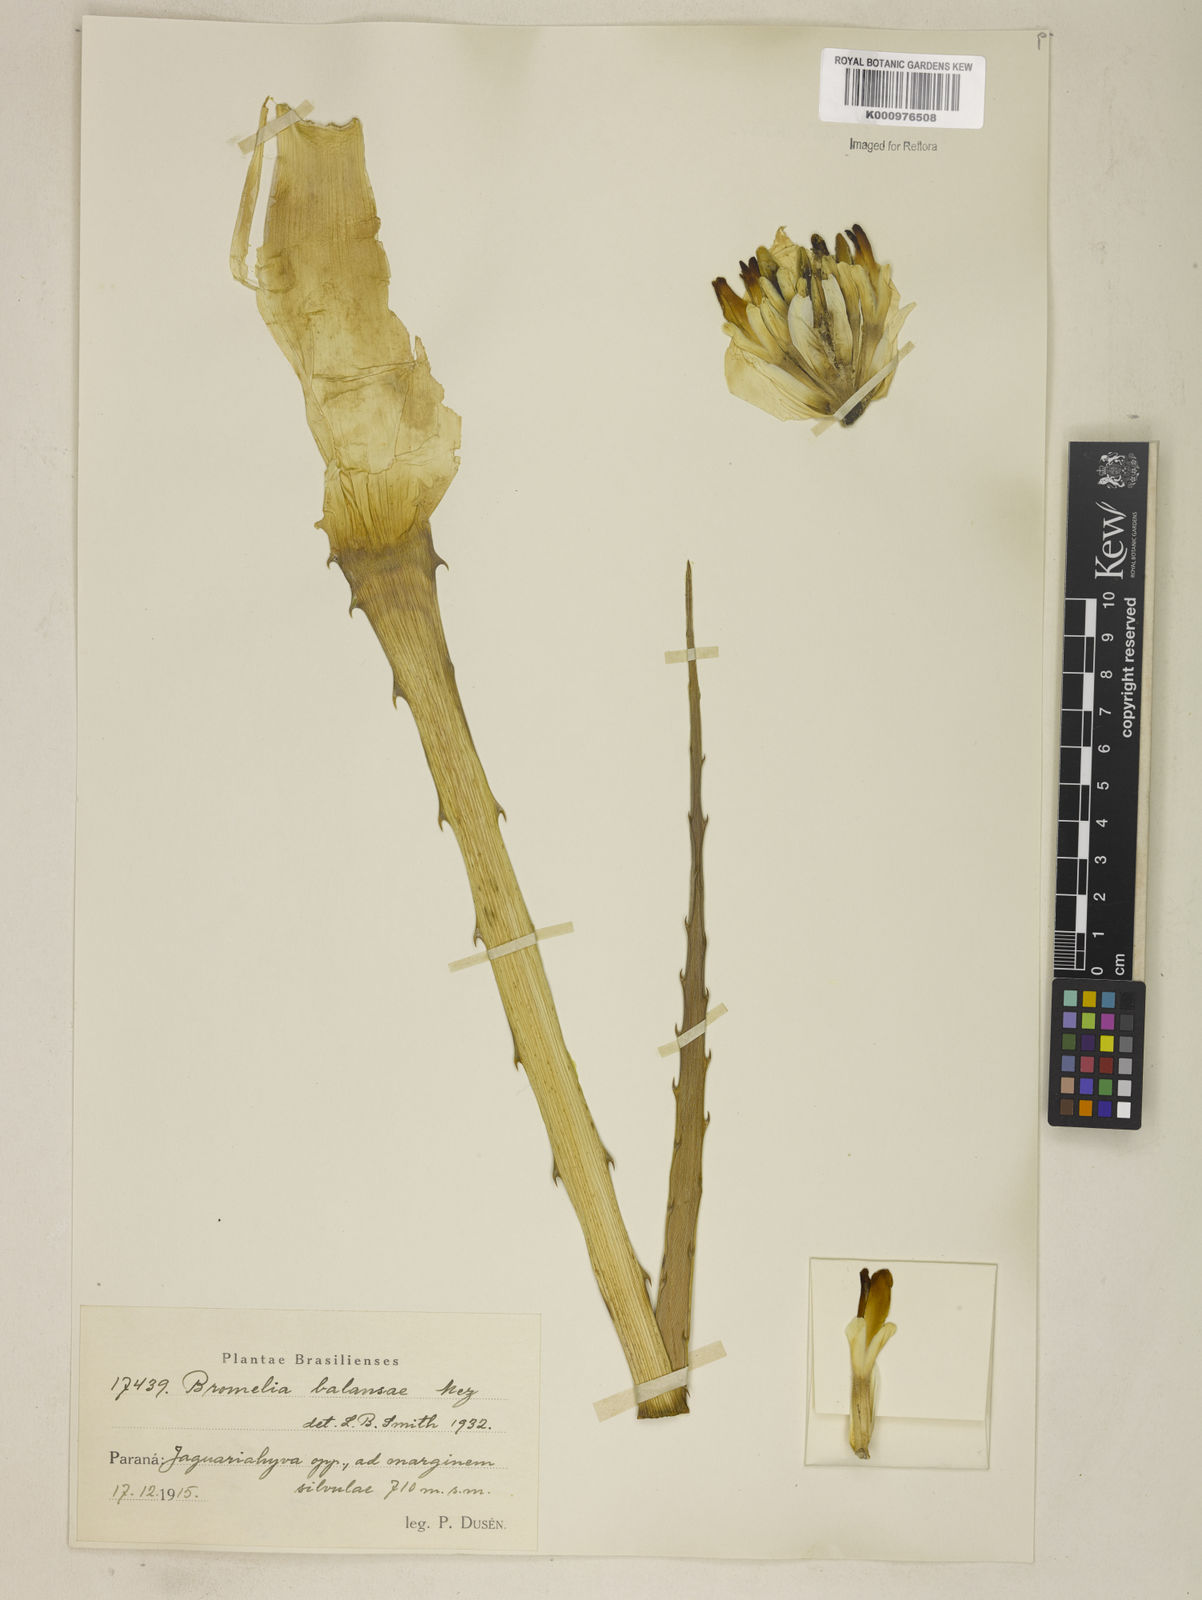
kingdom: Plantae
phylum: Tracheophyta
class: Liliopsida
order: Poales
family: Bromeliaceae
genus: Bromelia
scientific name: Bromelia balansae
